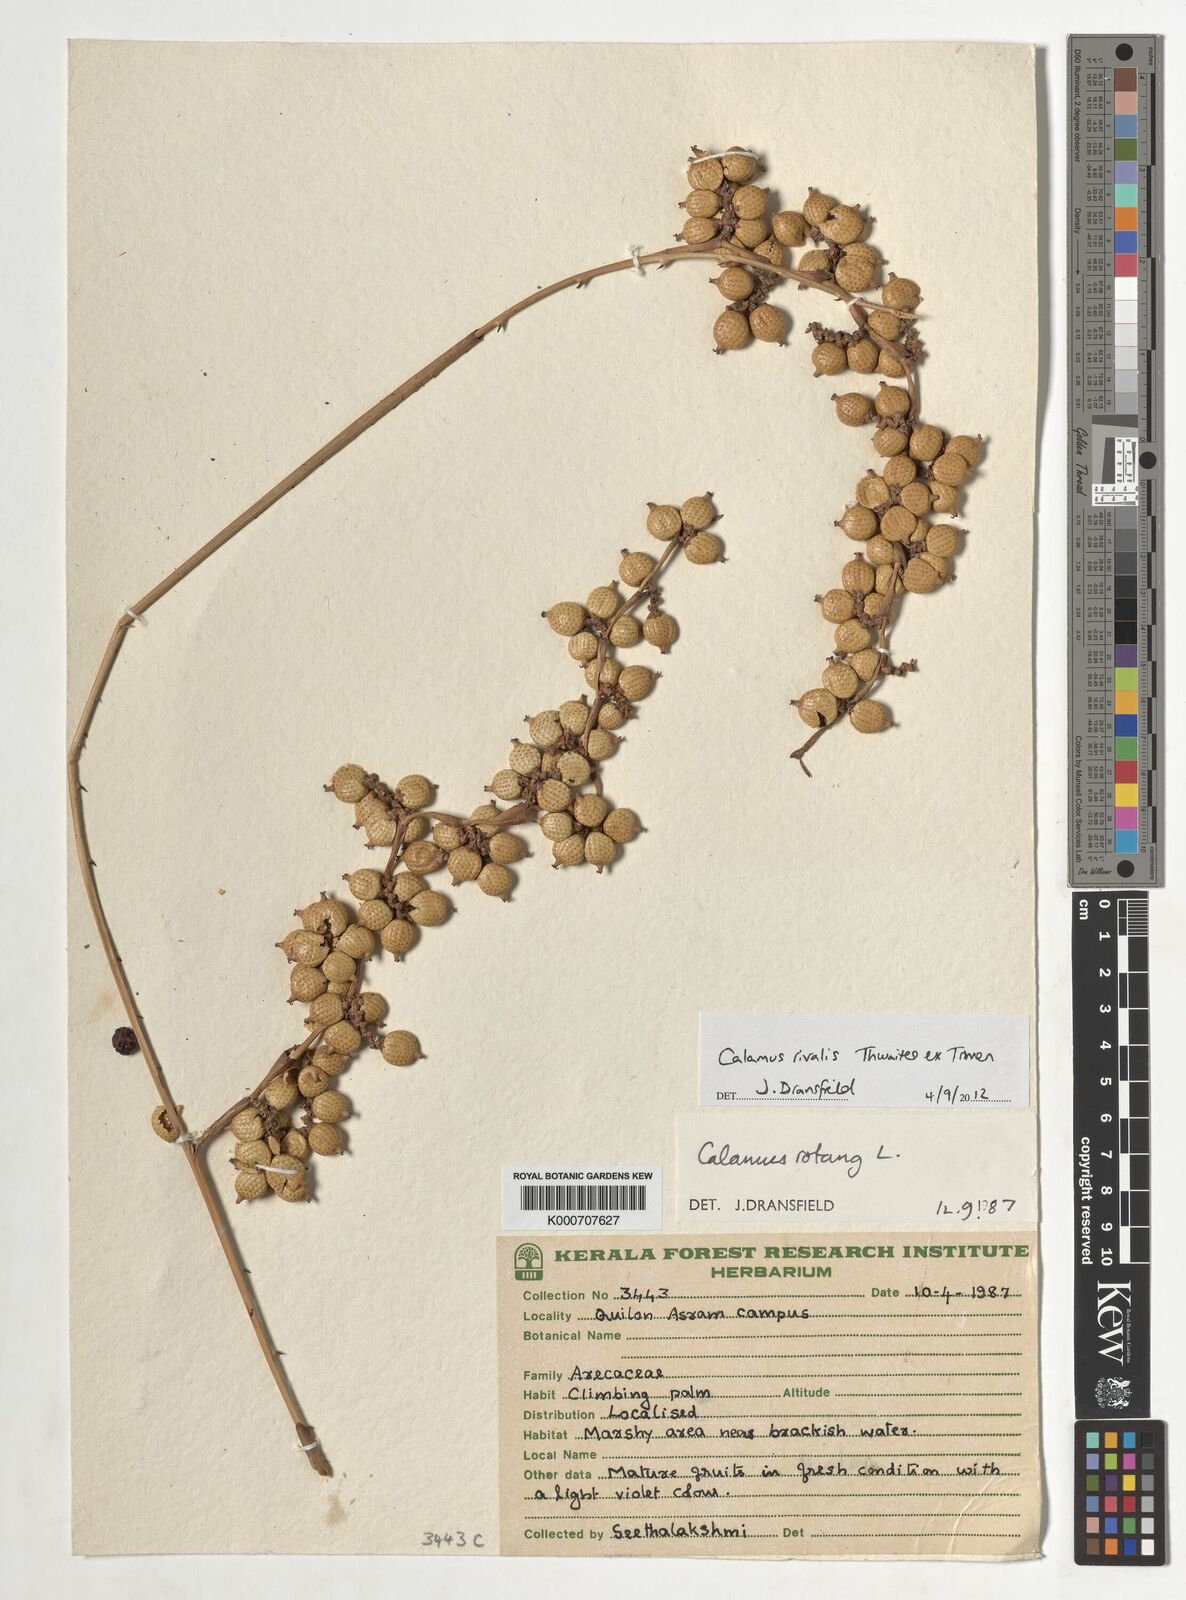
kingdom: Plantae
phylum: Tracheophyta
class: Liliopsida
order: Arecales
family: Arecaceae
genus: Calamus
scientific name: Calamus rotang
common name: Rattan cane
